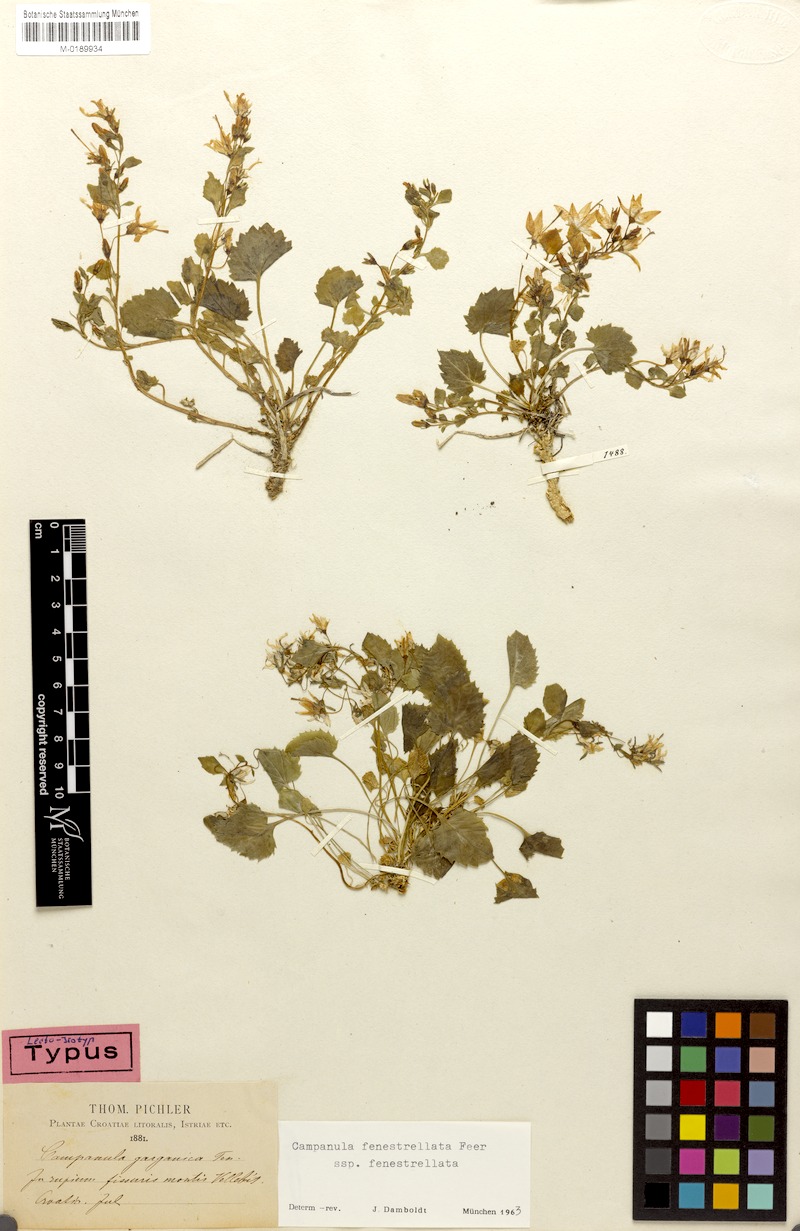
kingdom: Plantae
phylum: Tracheophyta
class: Magnoliopsida
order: Asterales
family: Campanulaceae
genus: Campanula
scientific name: Campanula fenestrellata
